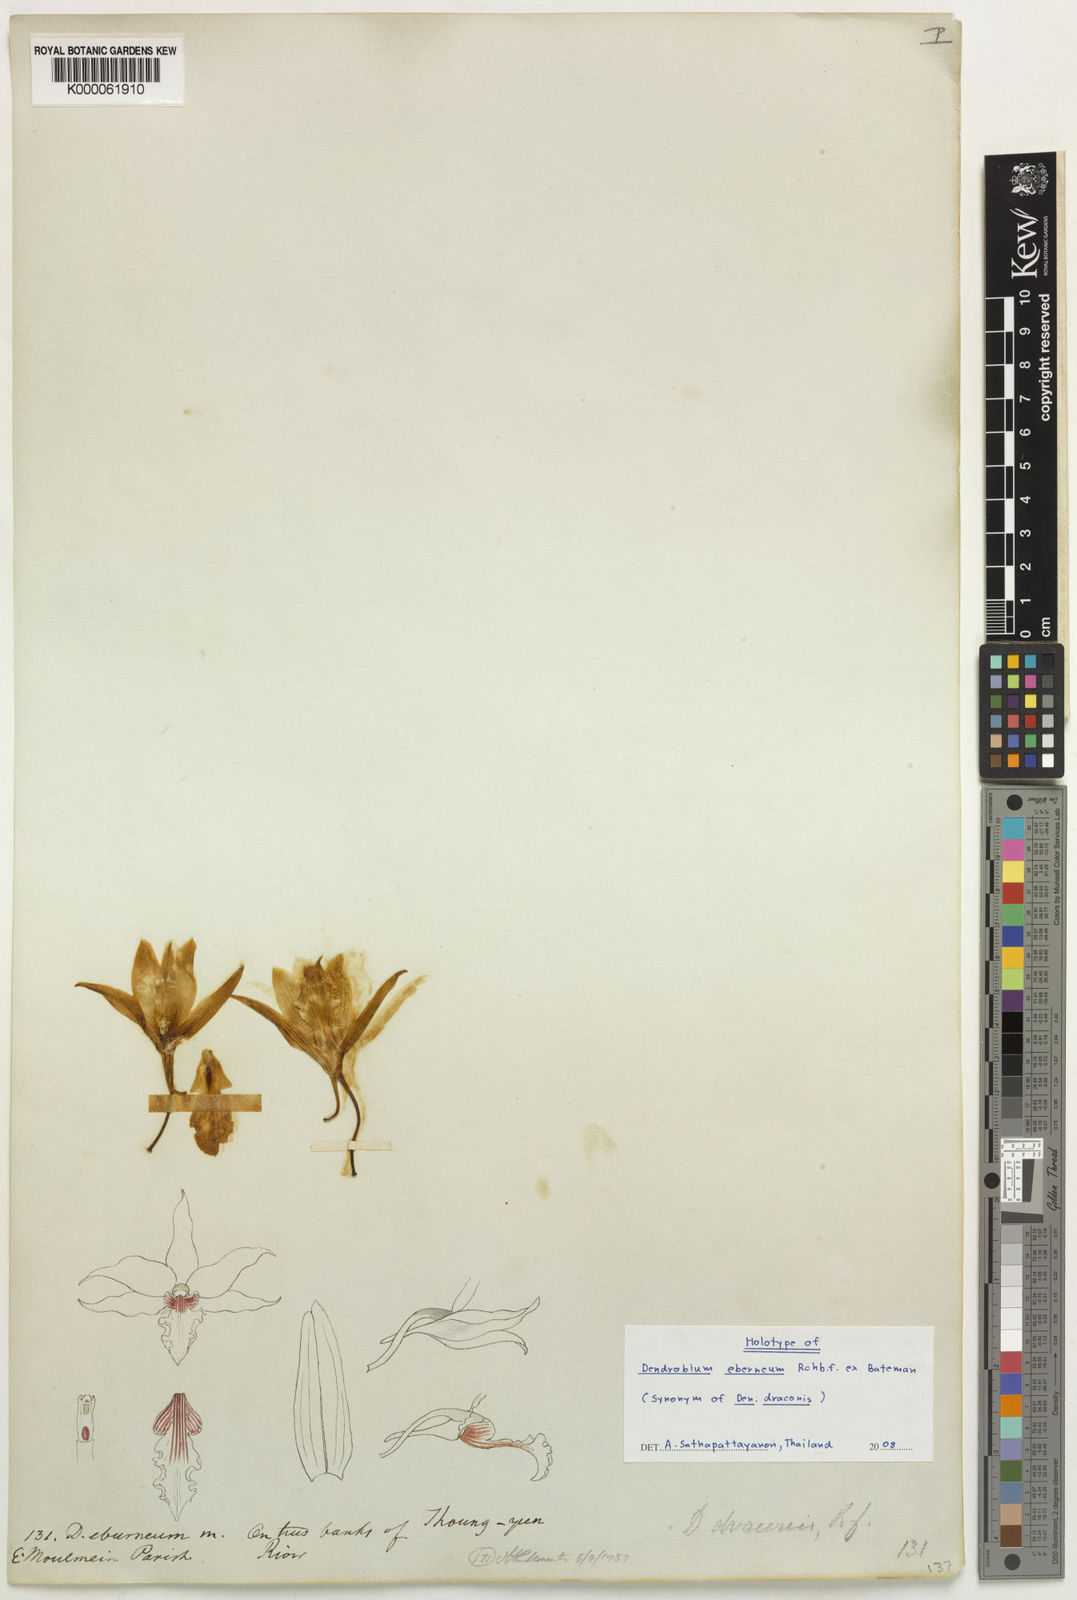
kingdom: Plantae
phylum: Tracheophyta
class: Liliopsida
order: Asparagales
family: Orchidaceae
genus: Dendrobium
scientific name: Dendrobium draconis
